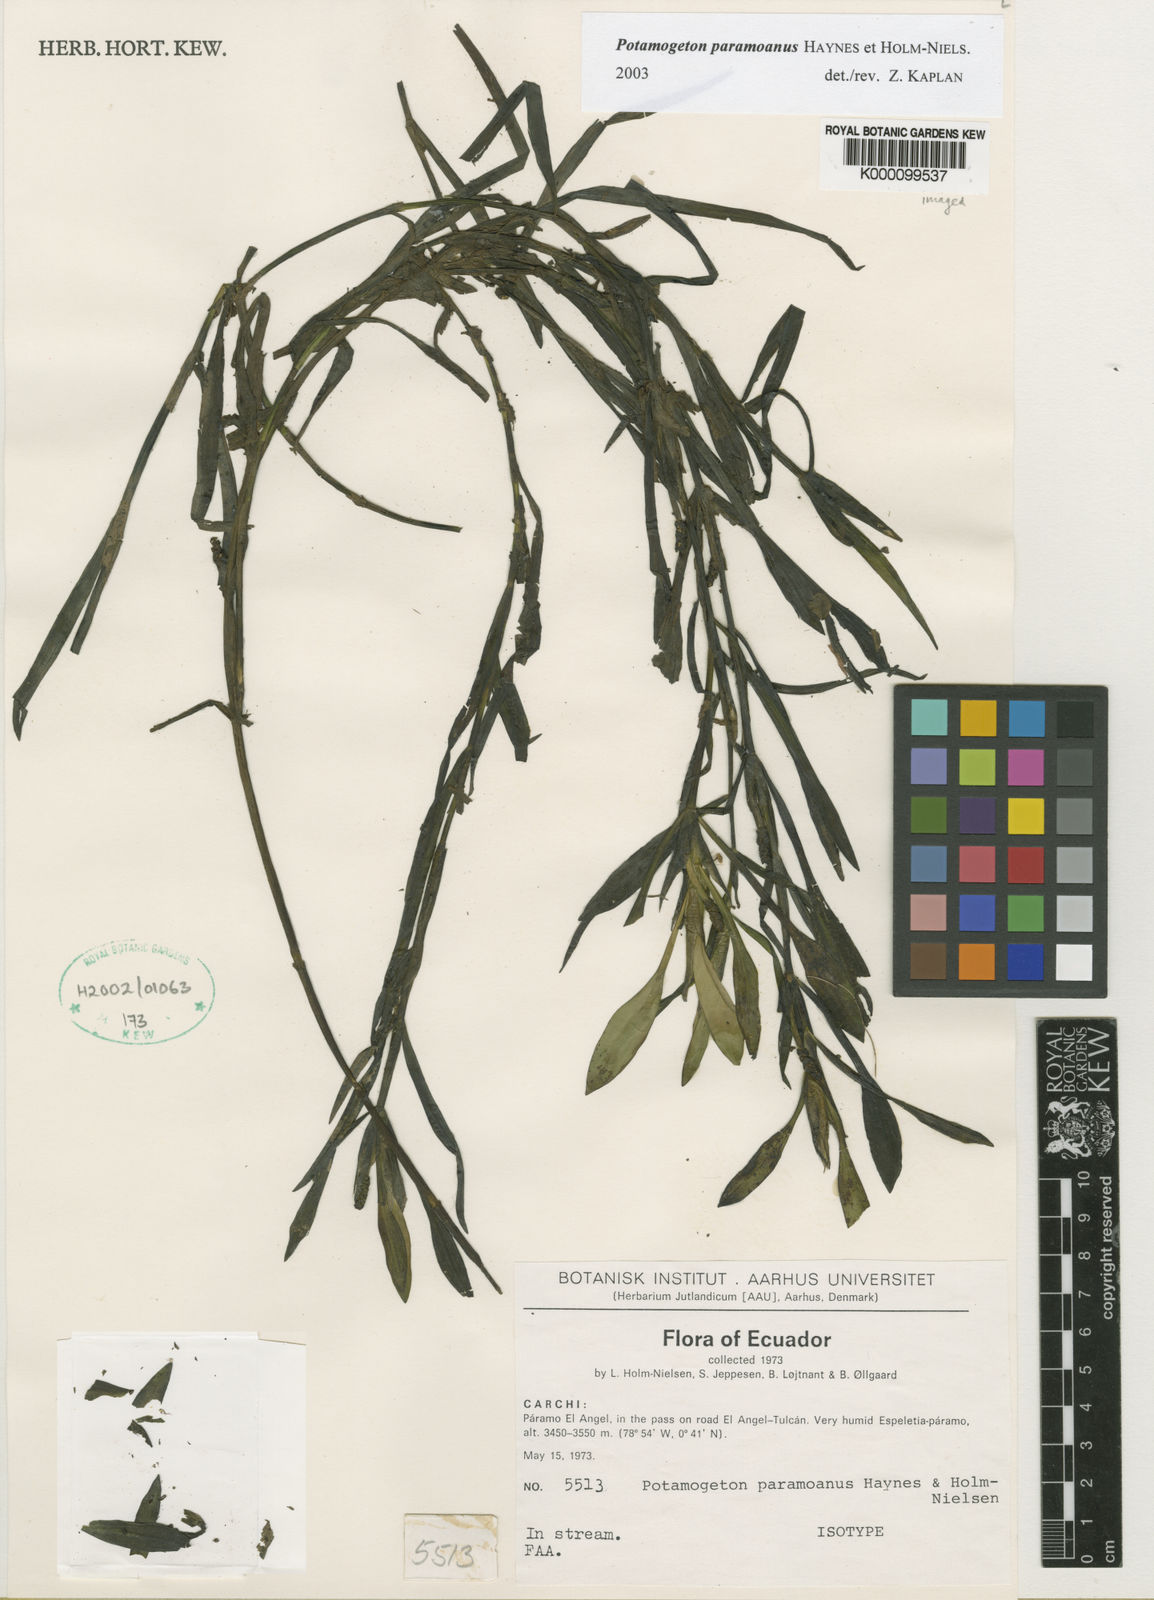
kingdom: Plantae
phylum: Tracheophyta
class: Liliopsida
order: Alismatales
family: Potamogetonaceae
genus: Potamogeton
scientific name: Potamogeton paramoanus
